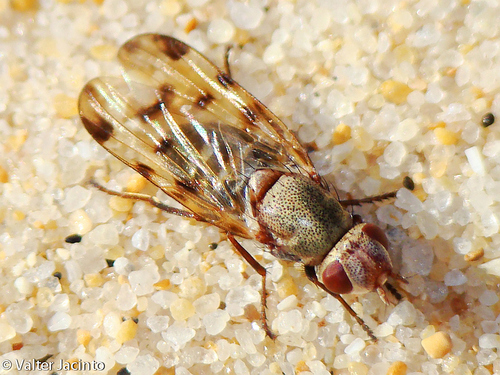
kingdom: Animalia
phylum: Arthropoda
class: Insecta
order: Diptera
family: Ulidiidae
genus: Tetanops
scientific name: Tetanops flavescens
